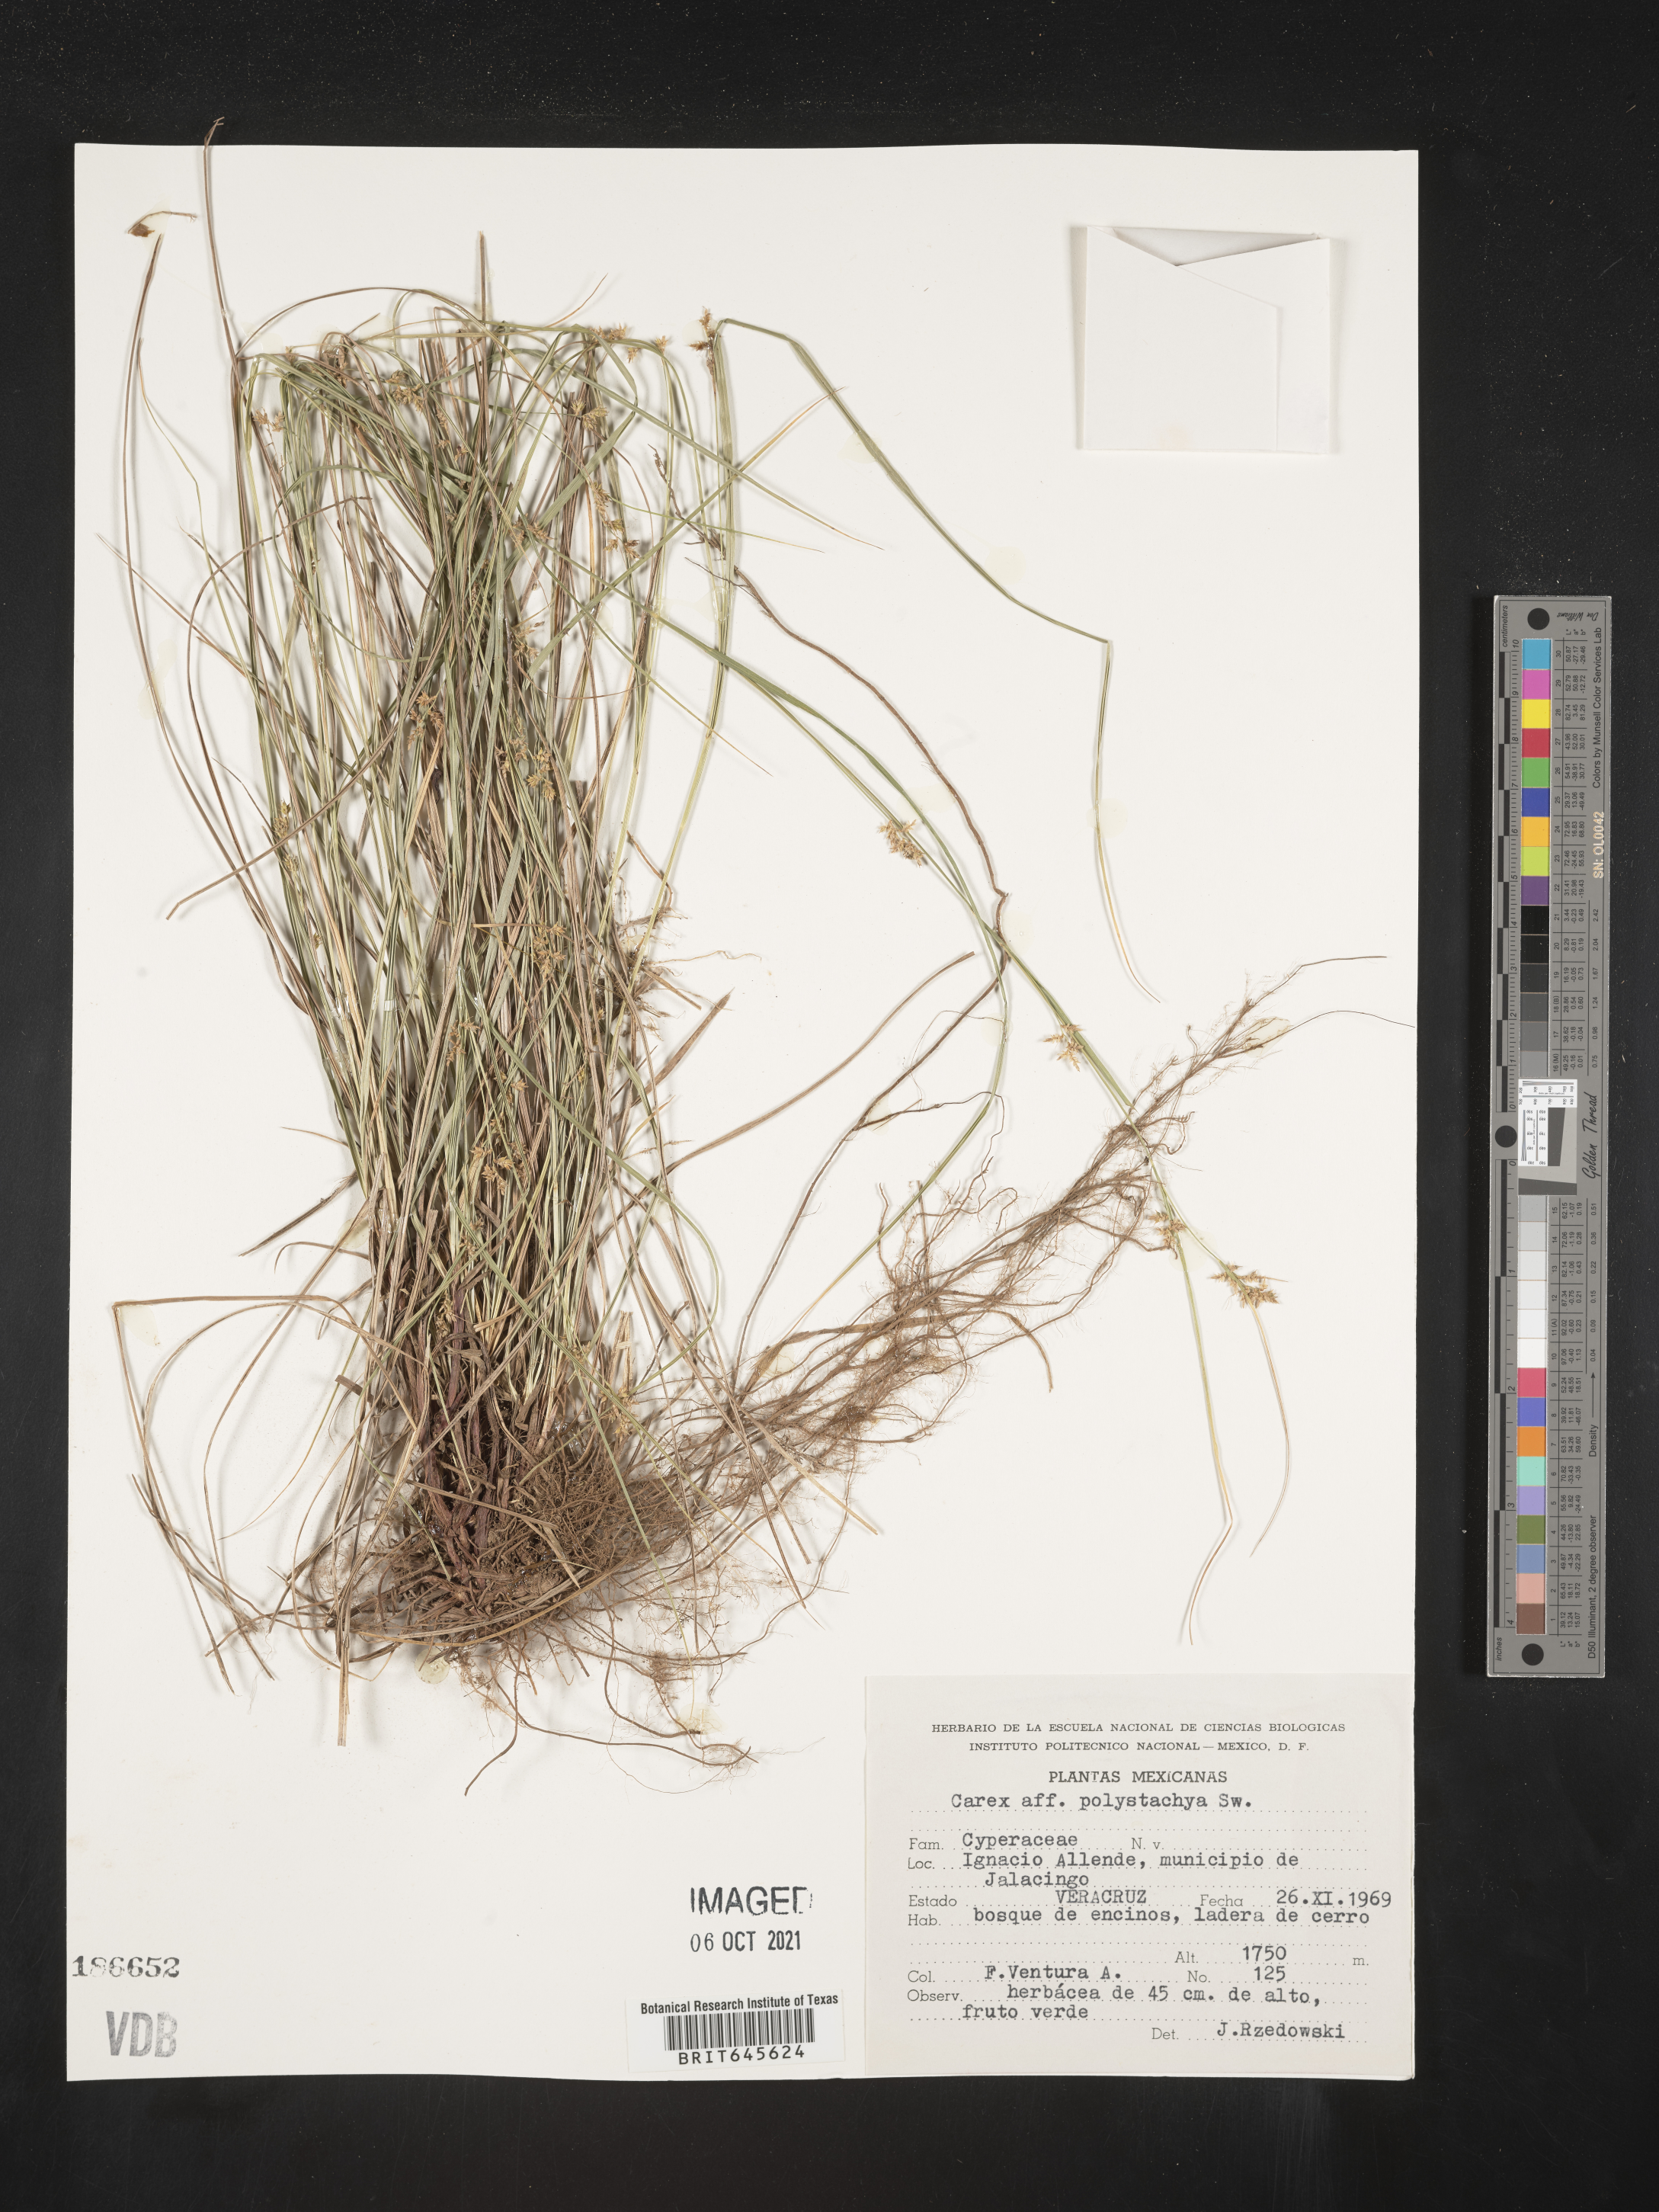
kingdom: Plantae
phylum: Tracheophyta
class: Liliopsida
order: Poales
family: Cyperaceae
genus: Carex
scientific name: Carex
